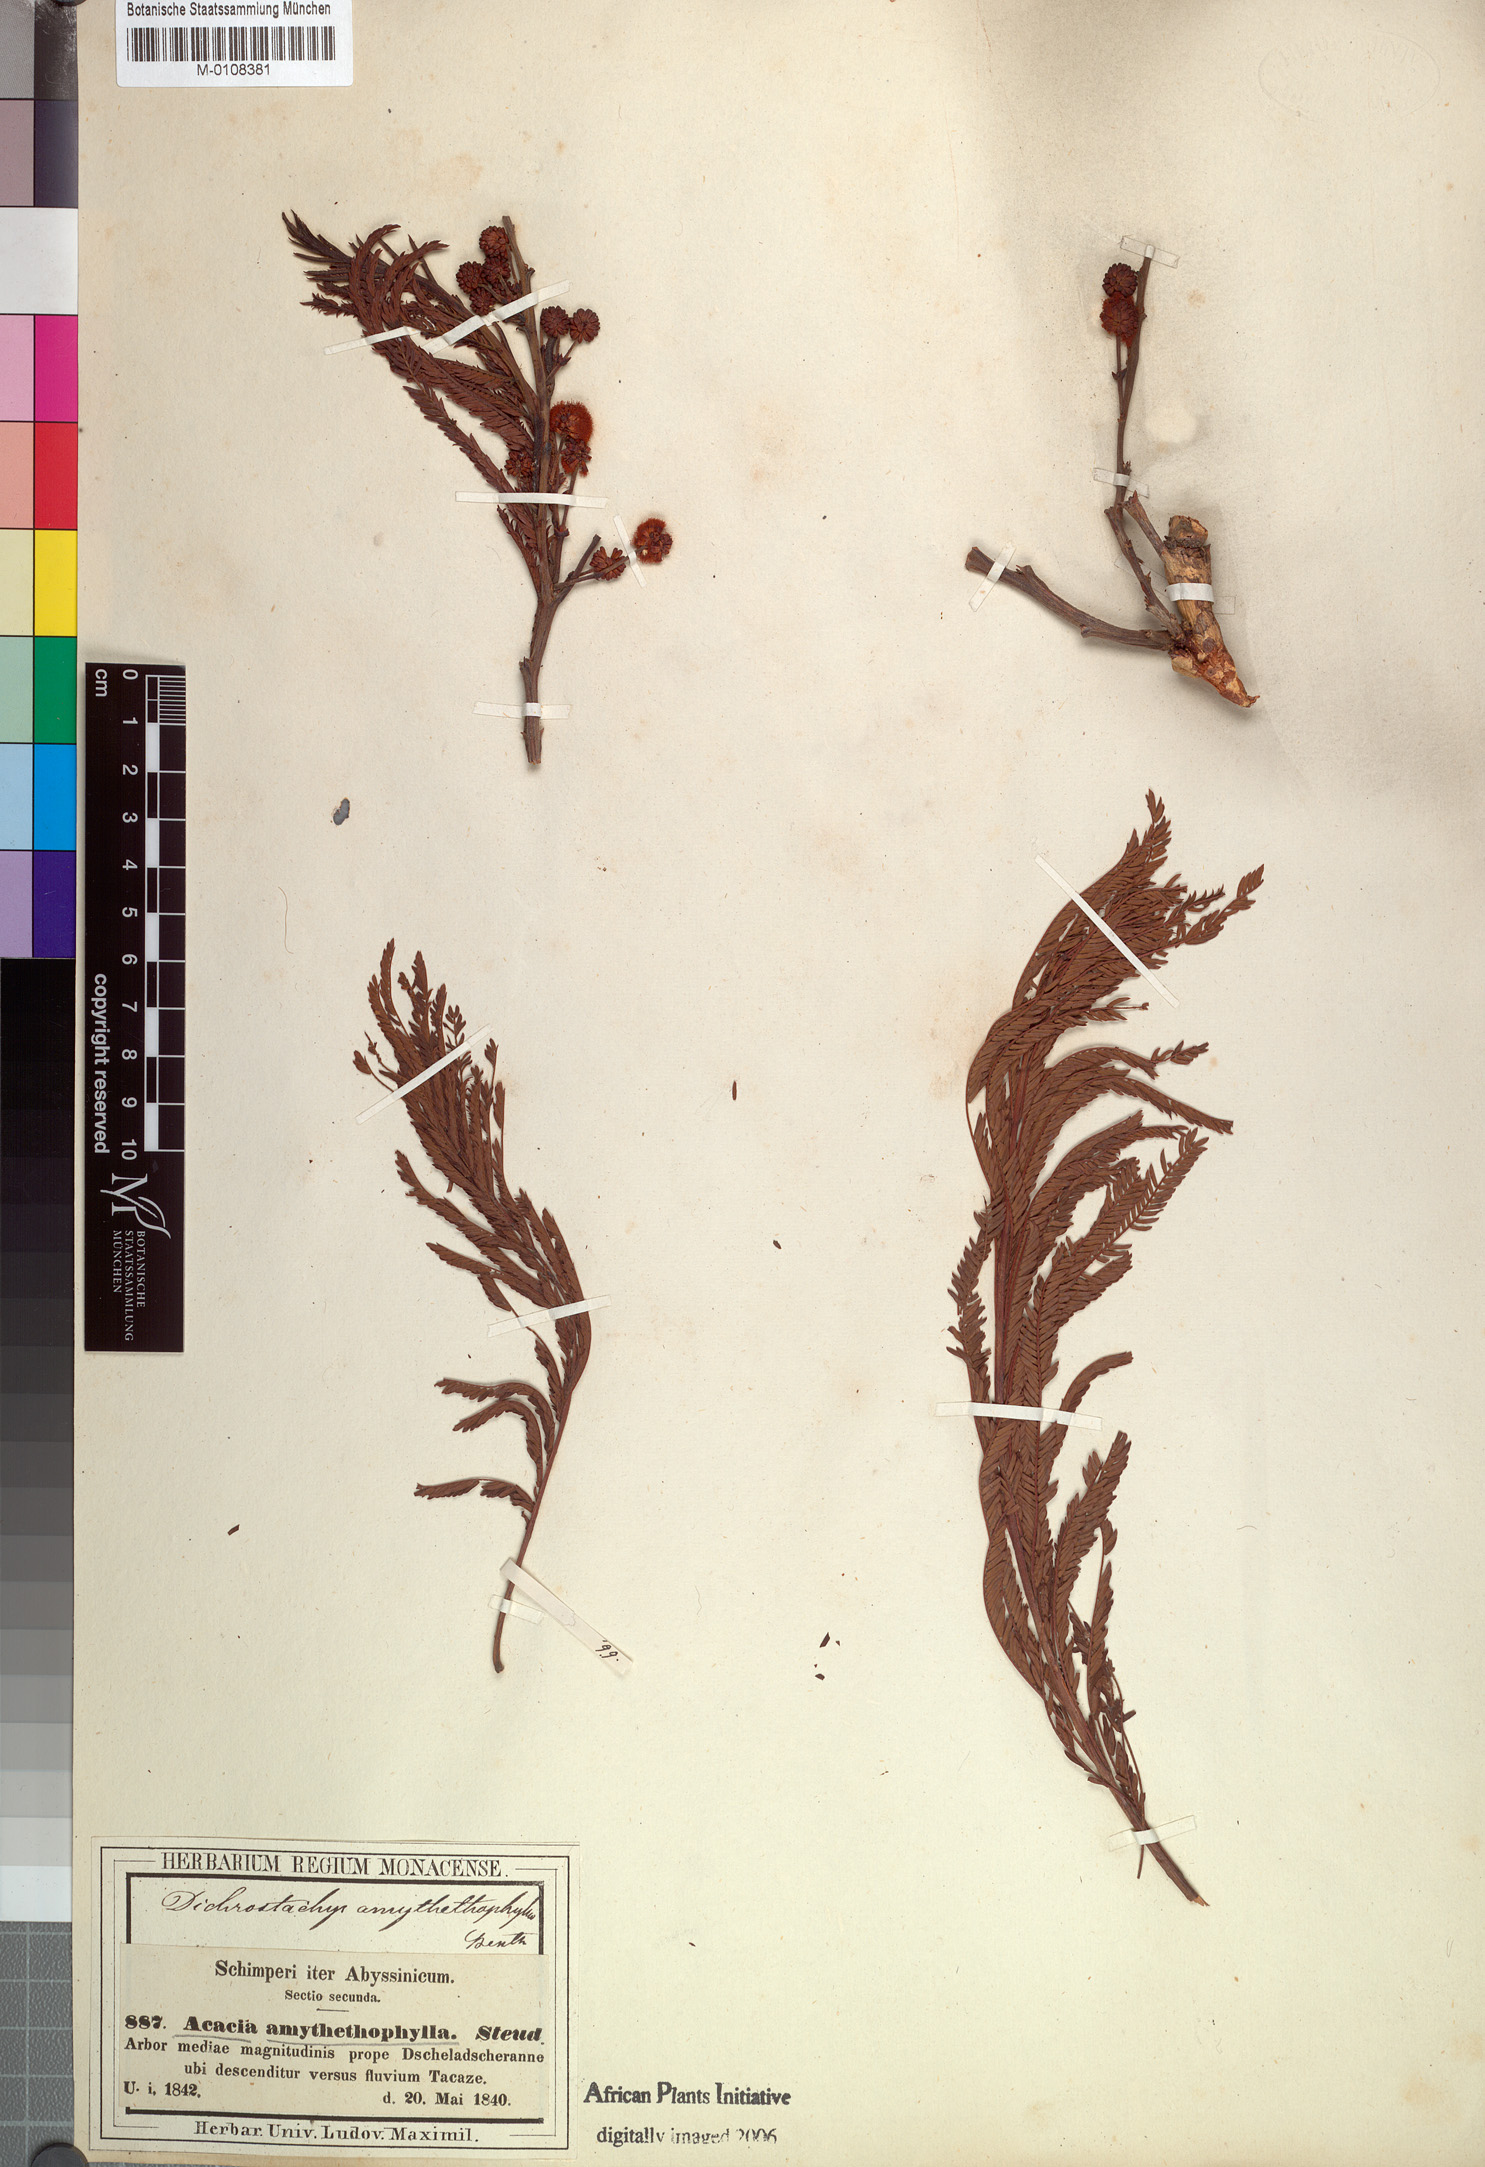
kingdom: Plantae
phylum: Tracheophyta
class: Magnoliopsida
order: Fabales
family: Fabaceae
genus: Vachellia
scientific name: Vachellia amythethophylla
